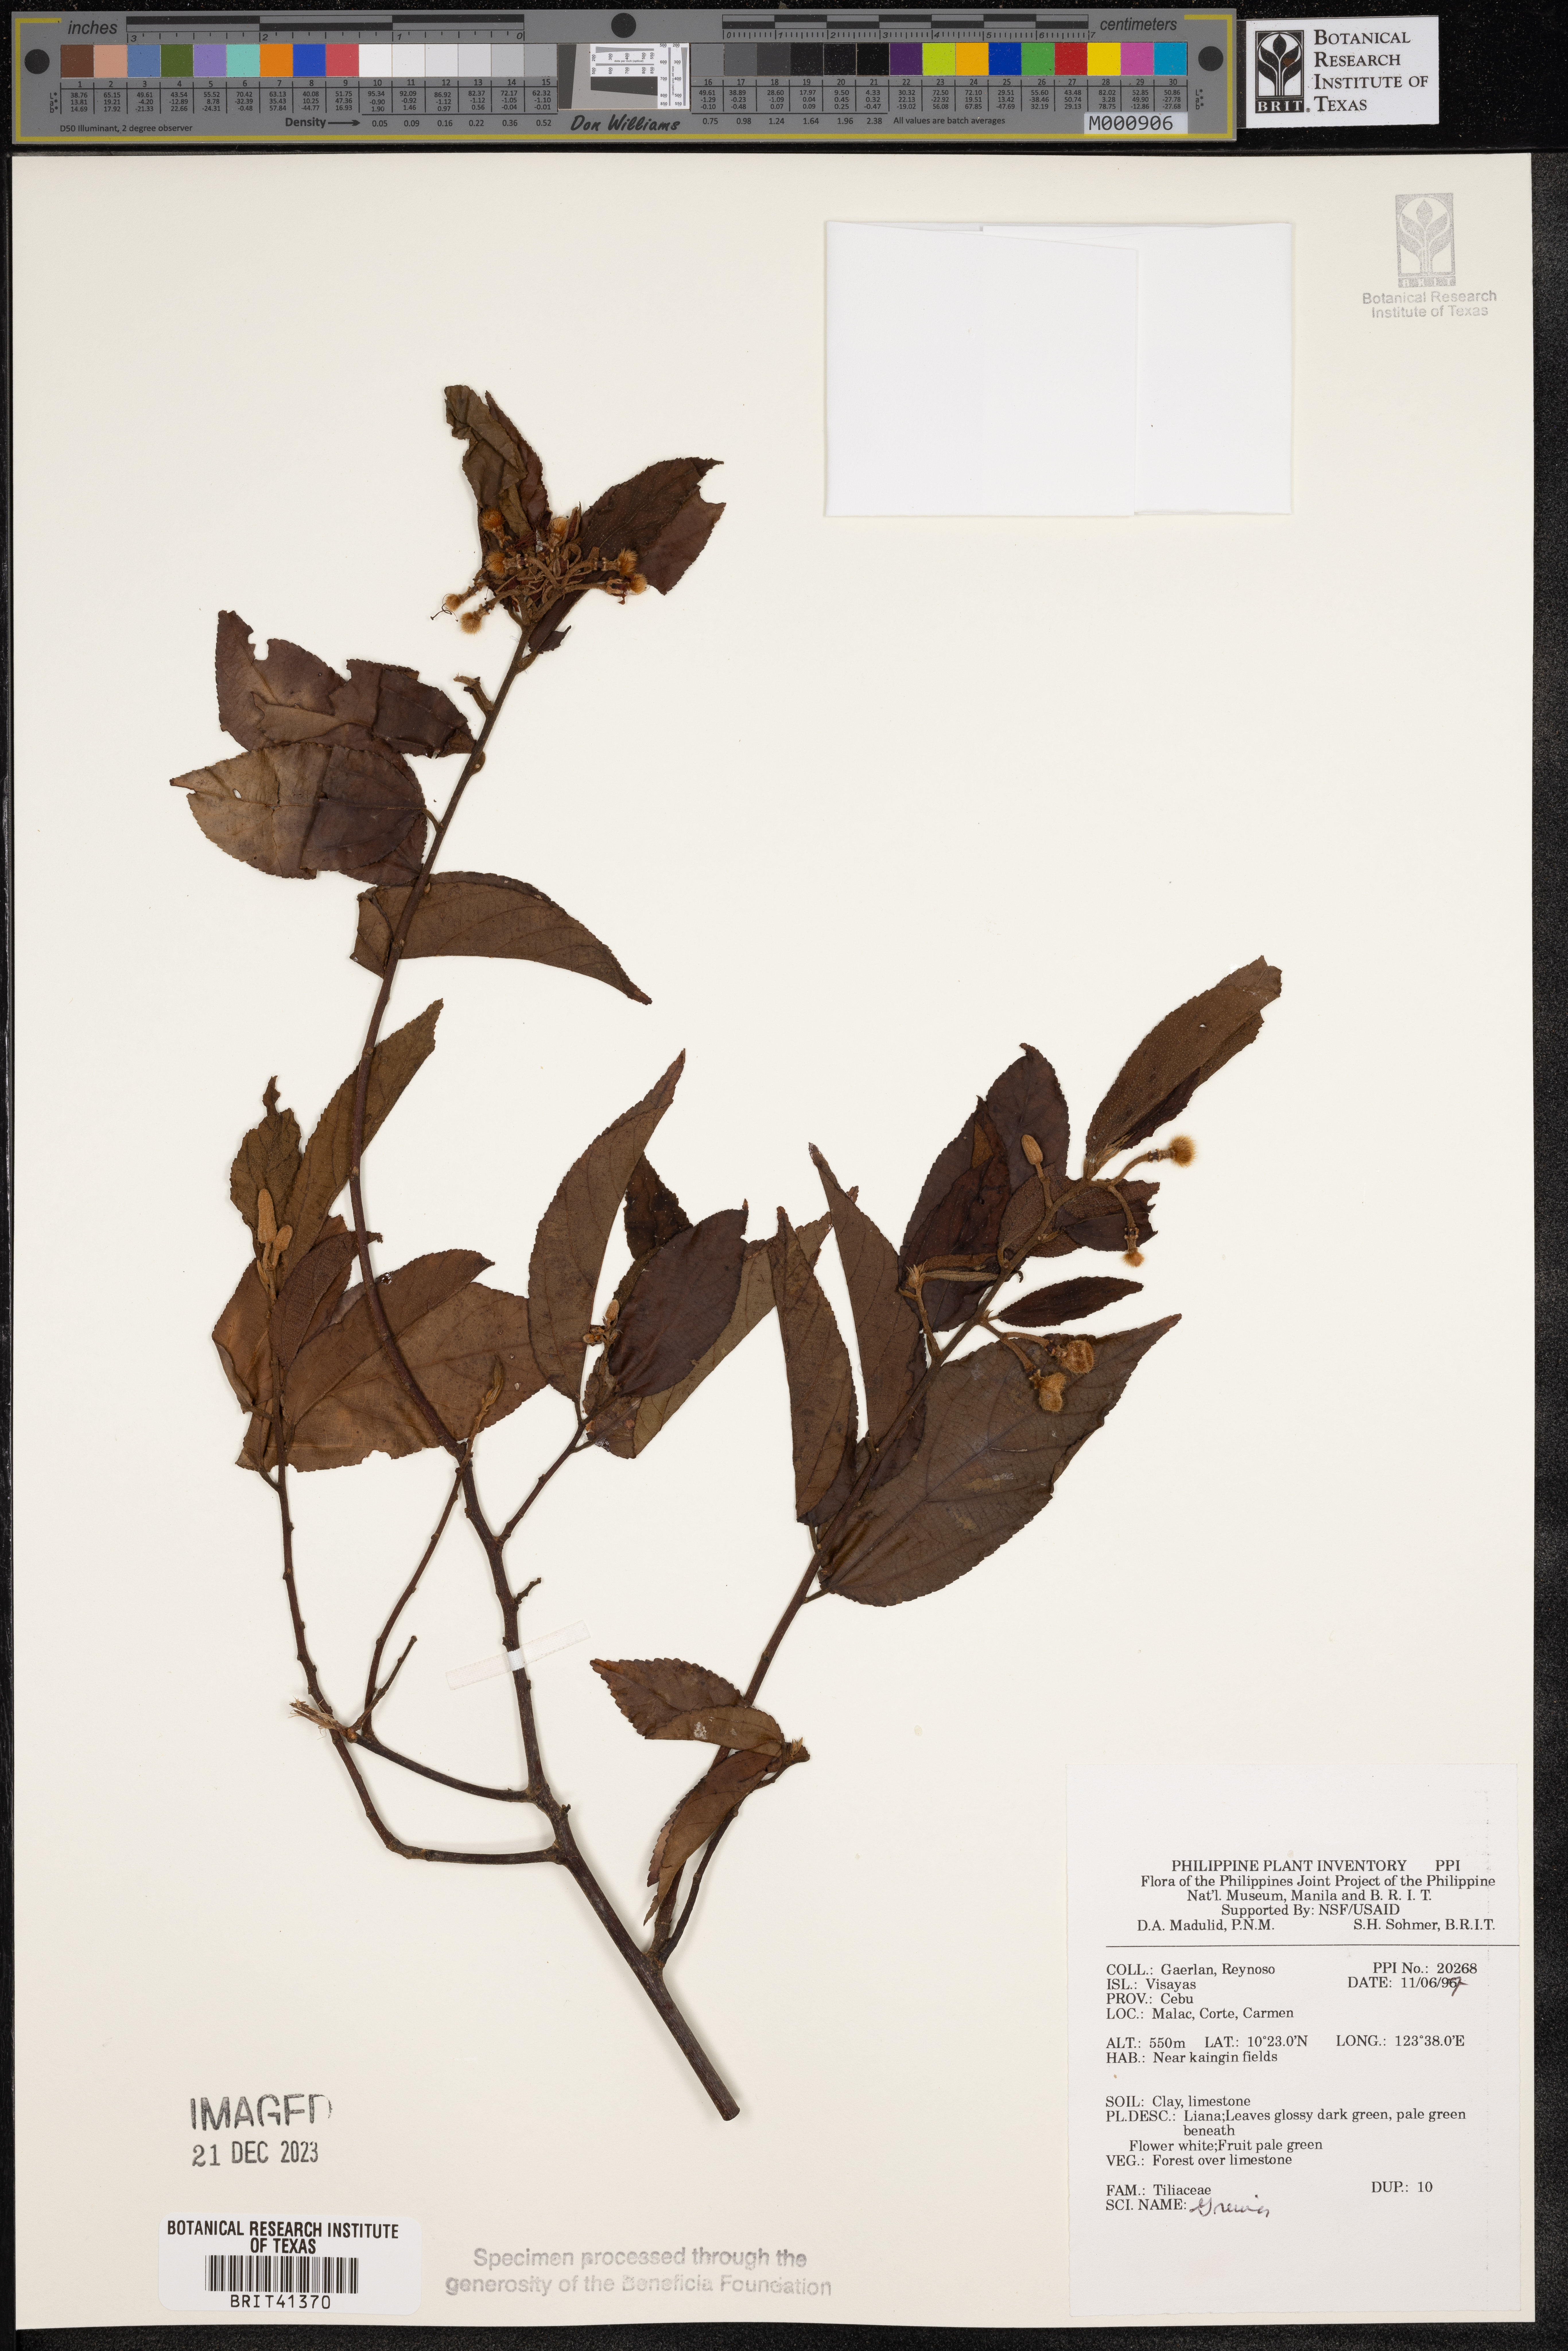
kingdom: Plantae
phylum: Tracheophyta
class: Magnoliopsida
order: Malvales
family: Malvaceae
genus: Grewia
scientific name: Grewia
